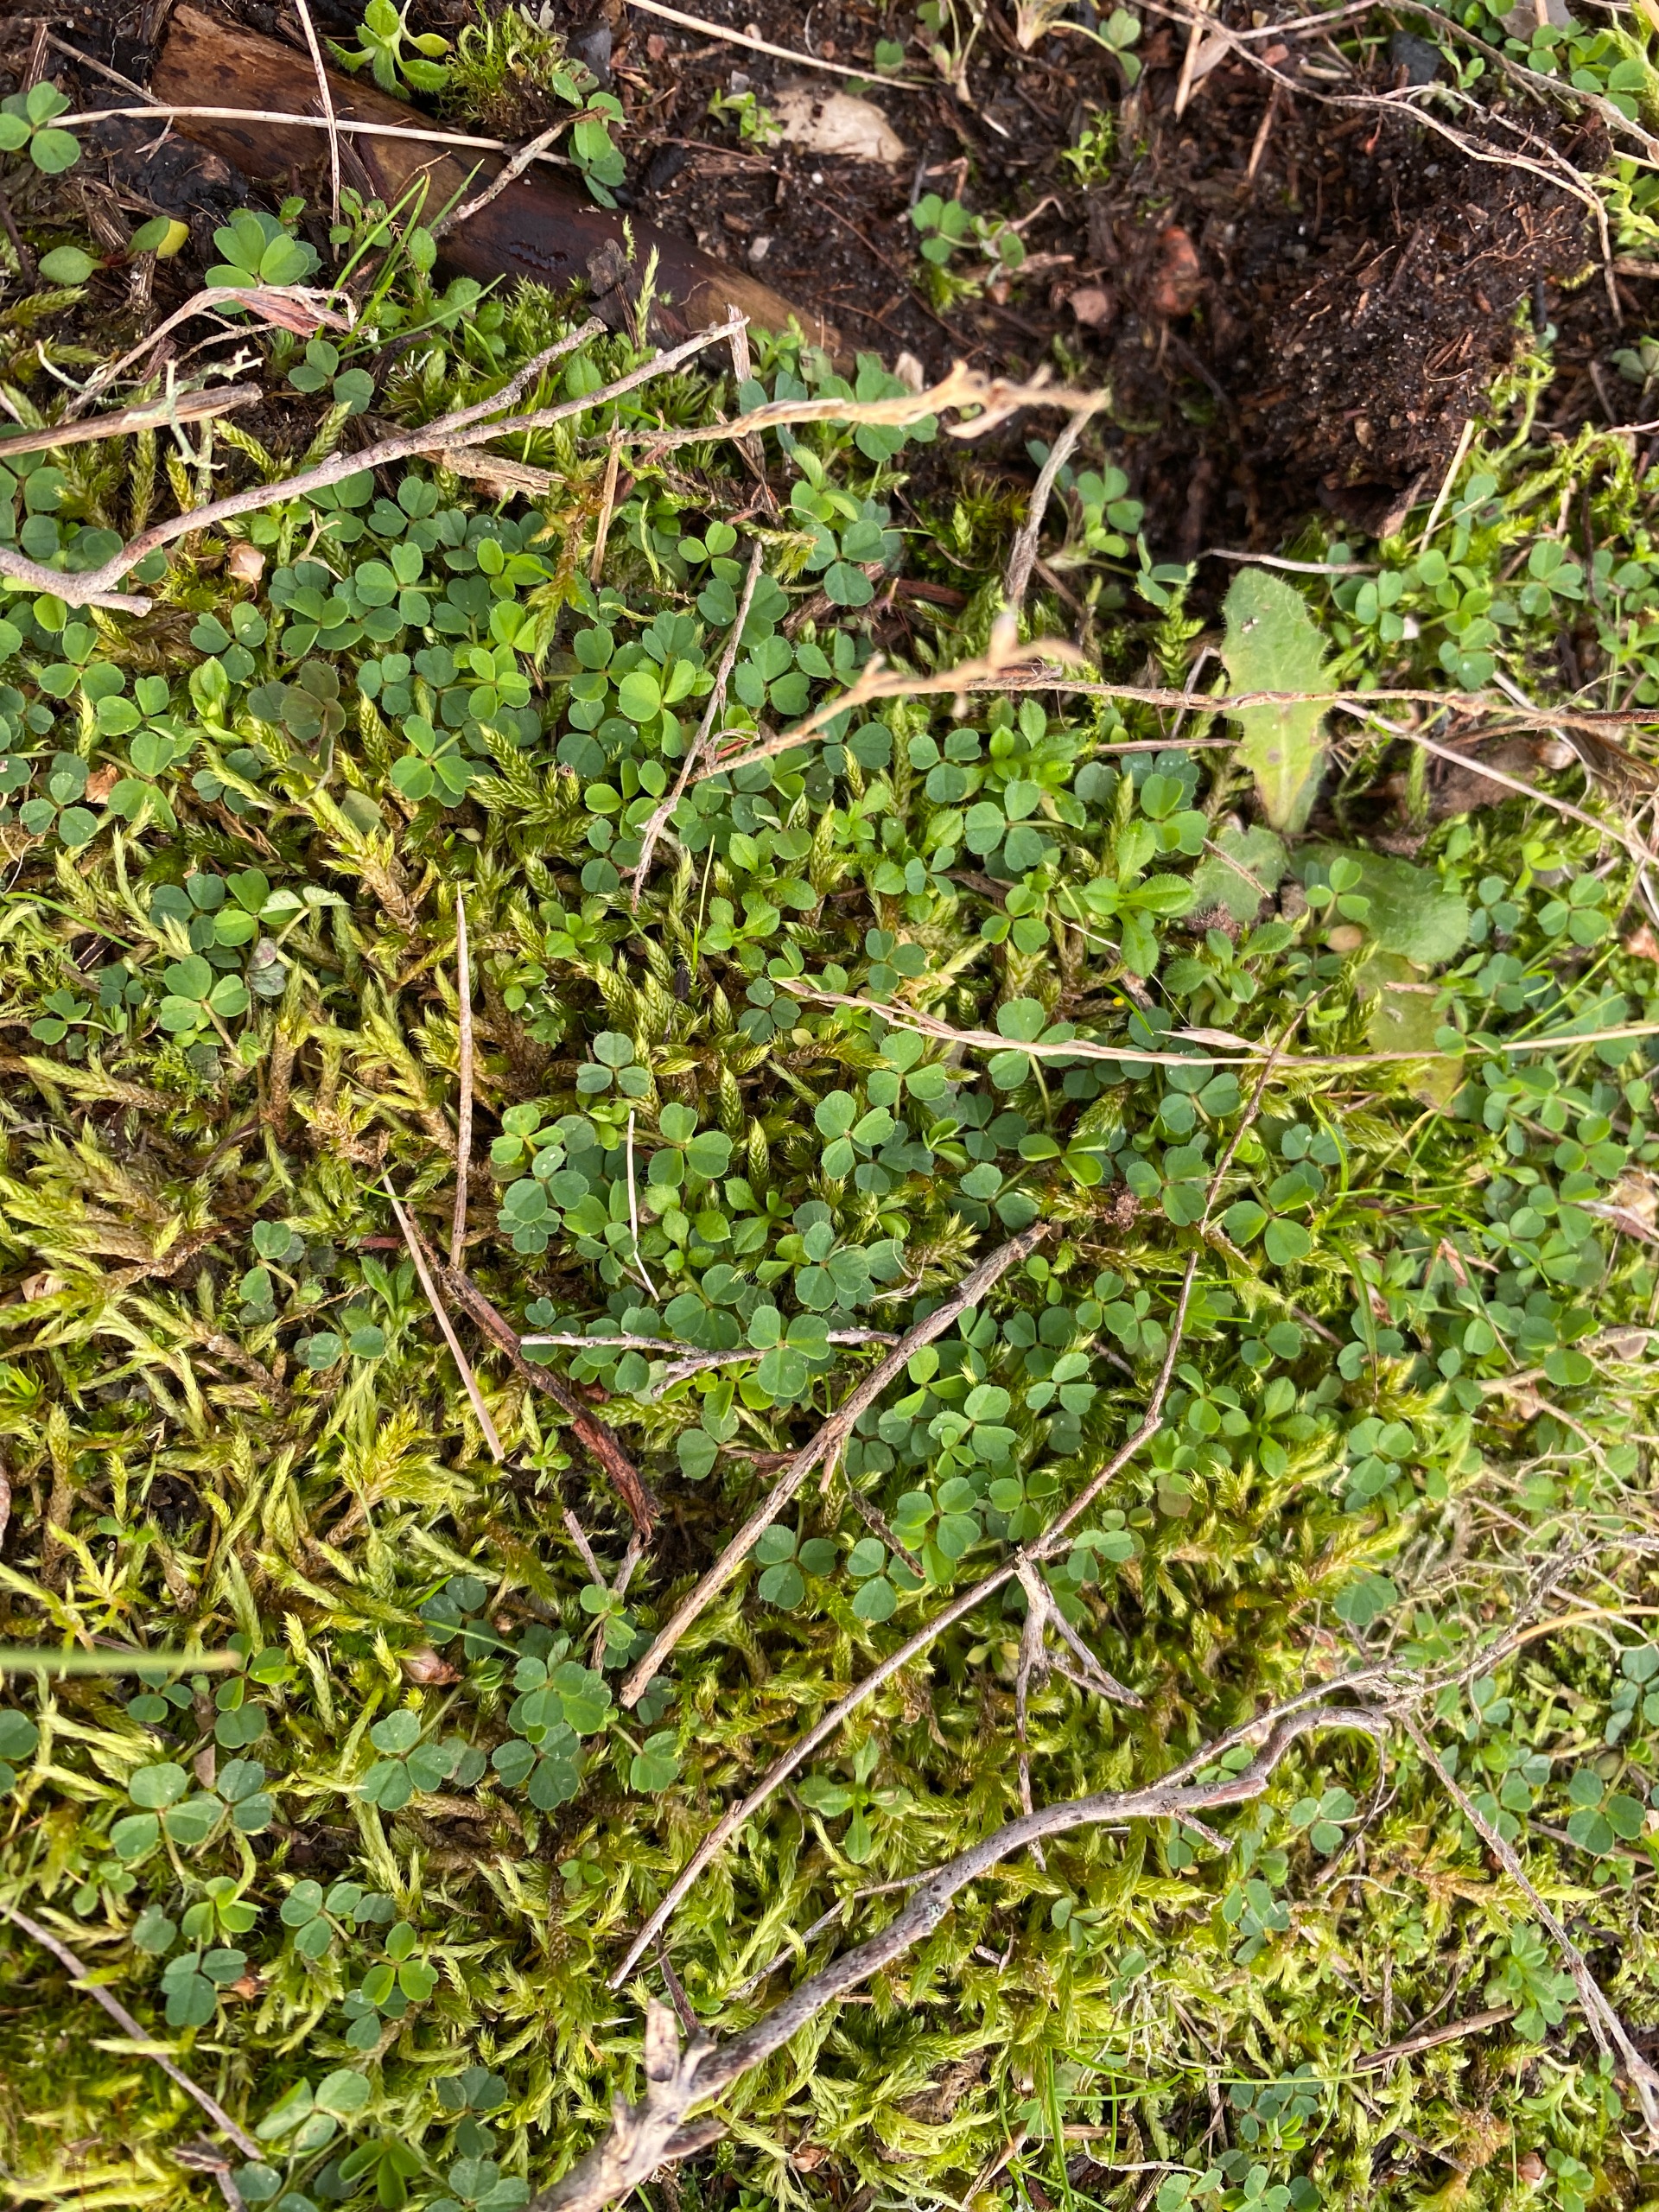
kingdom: Plantae
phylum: Tracheophyta
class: Magnoliopsida
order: Fabales
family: Fabaceae
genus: Trifolium
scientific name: Trifolium
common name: Kløverslægten
